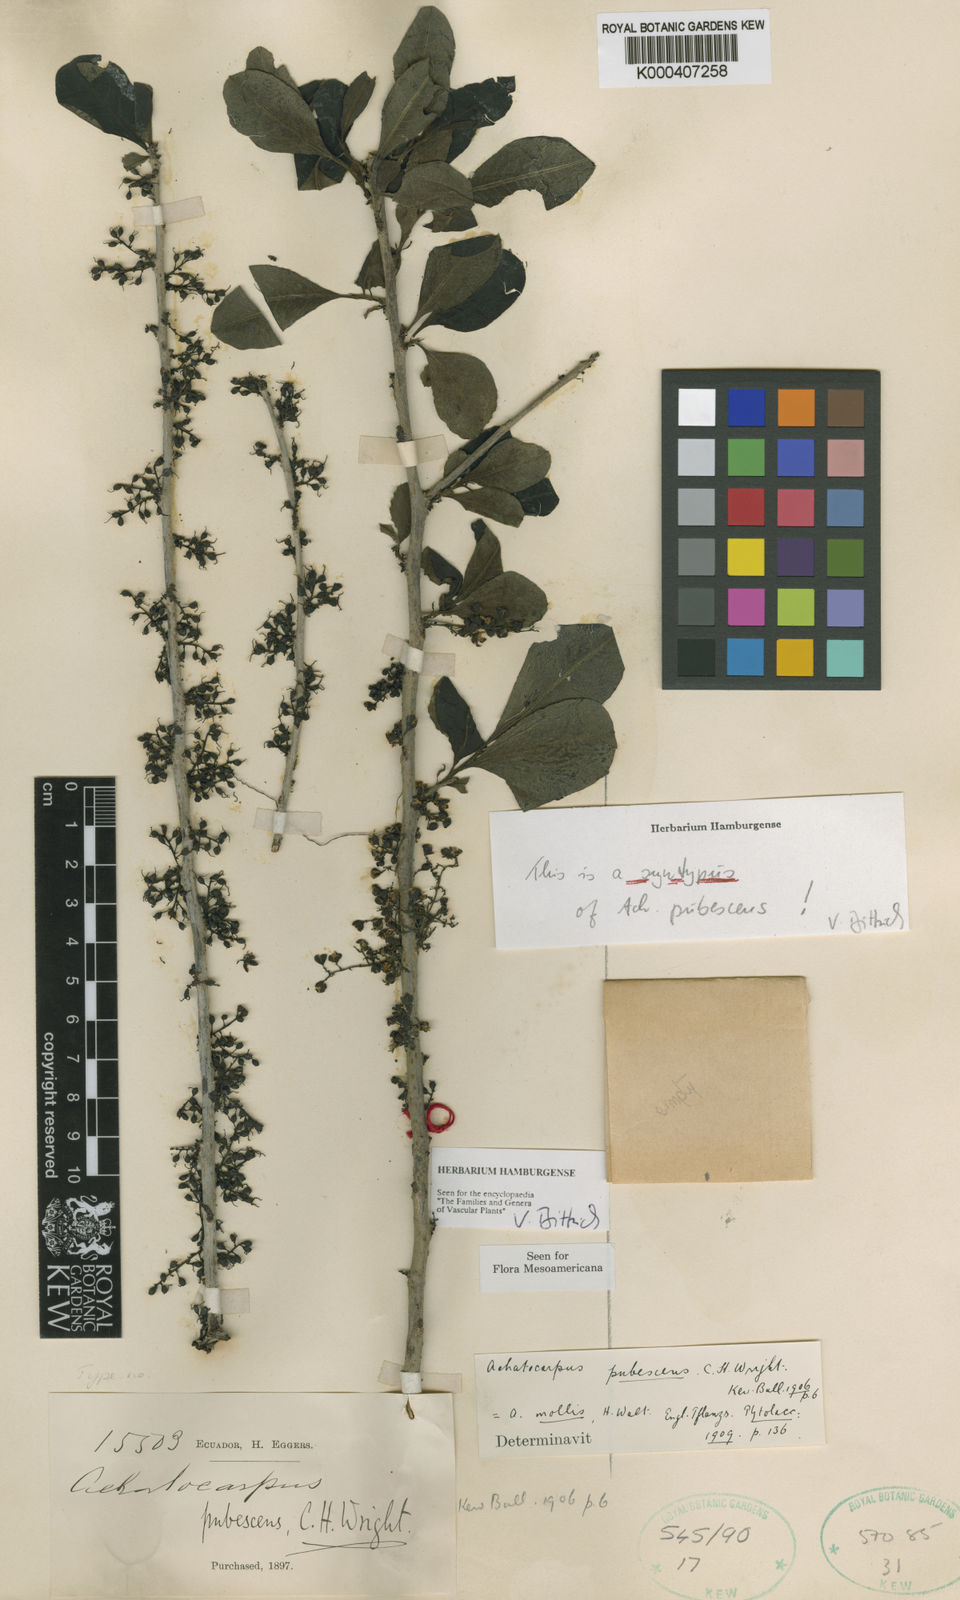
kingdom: Plantae
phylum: Tracheophyta
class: Magnoliopsida
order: Caryophyllales
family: Achatocarpaceae
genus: Achatocarpus
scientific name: Achatocarpus pubescens
